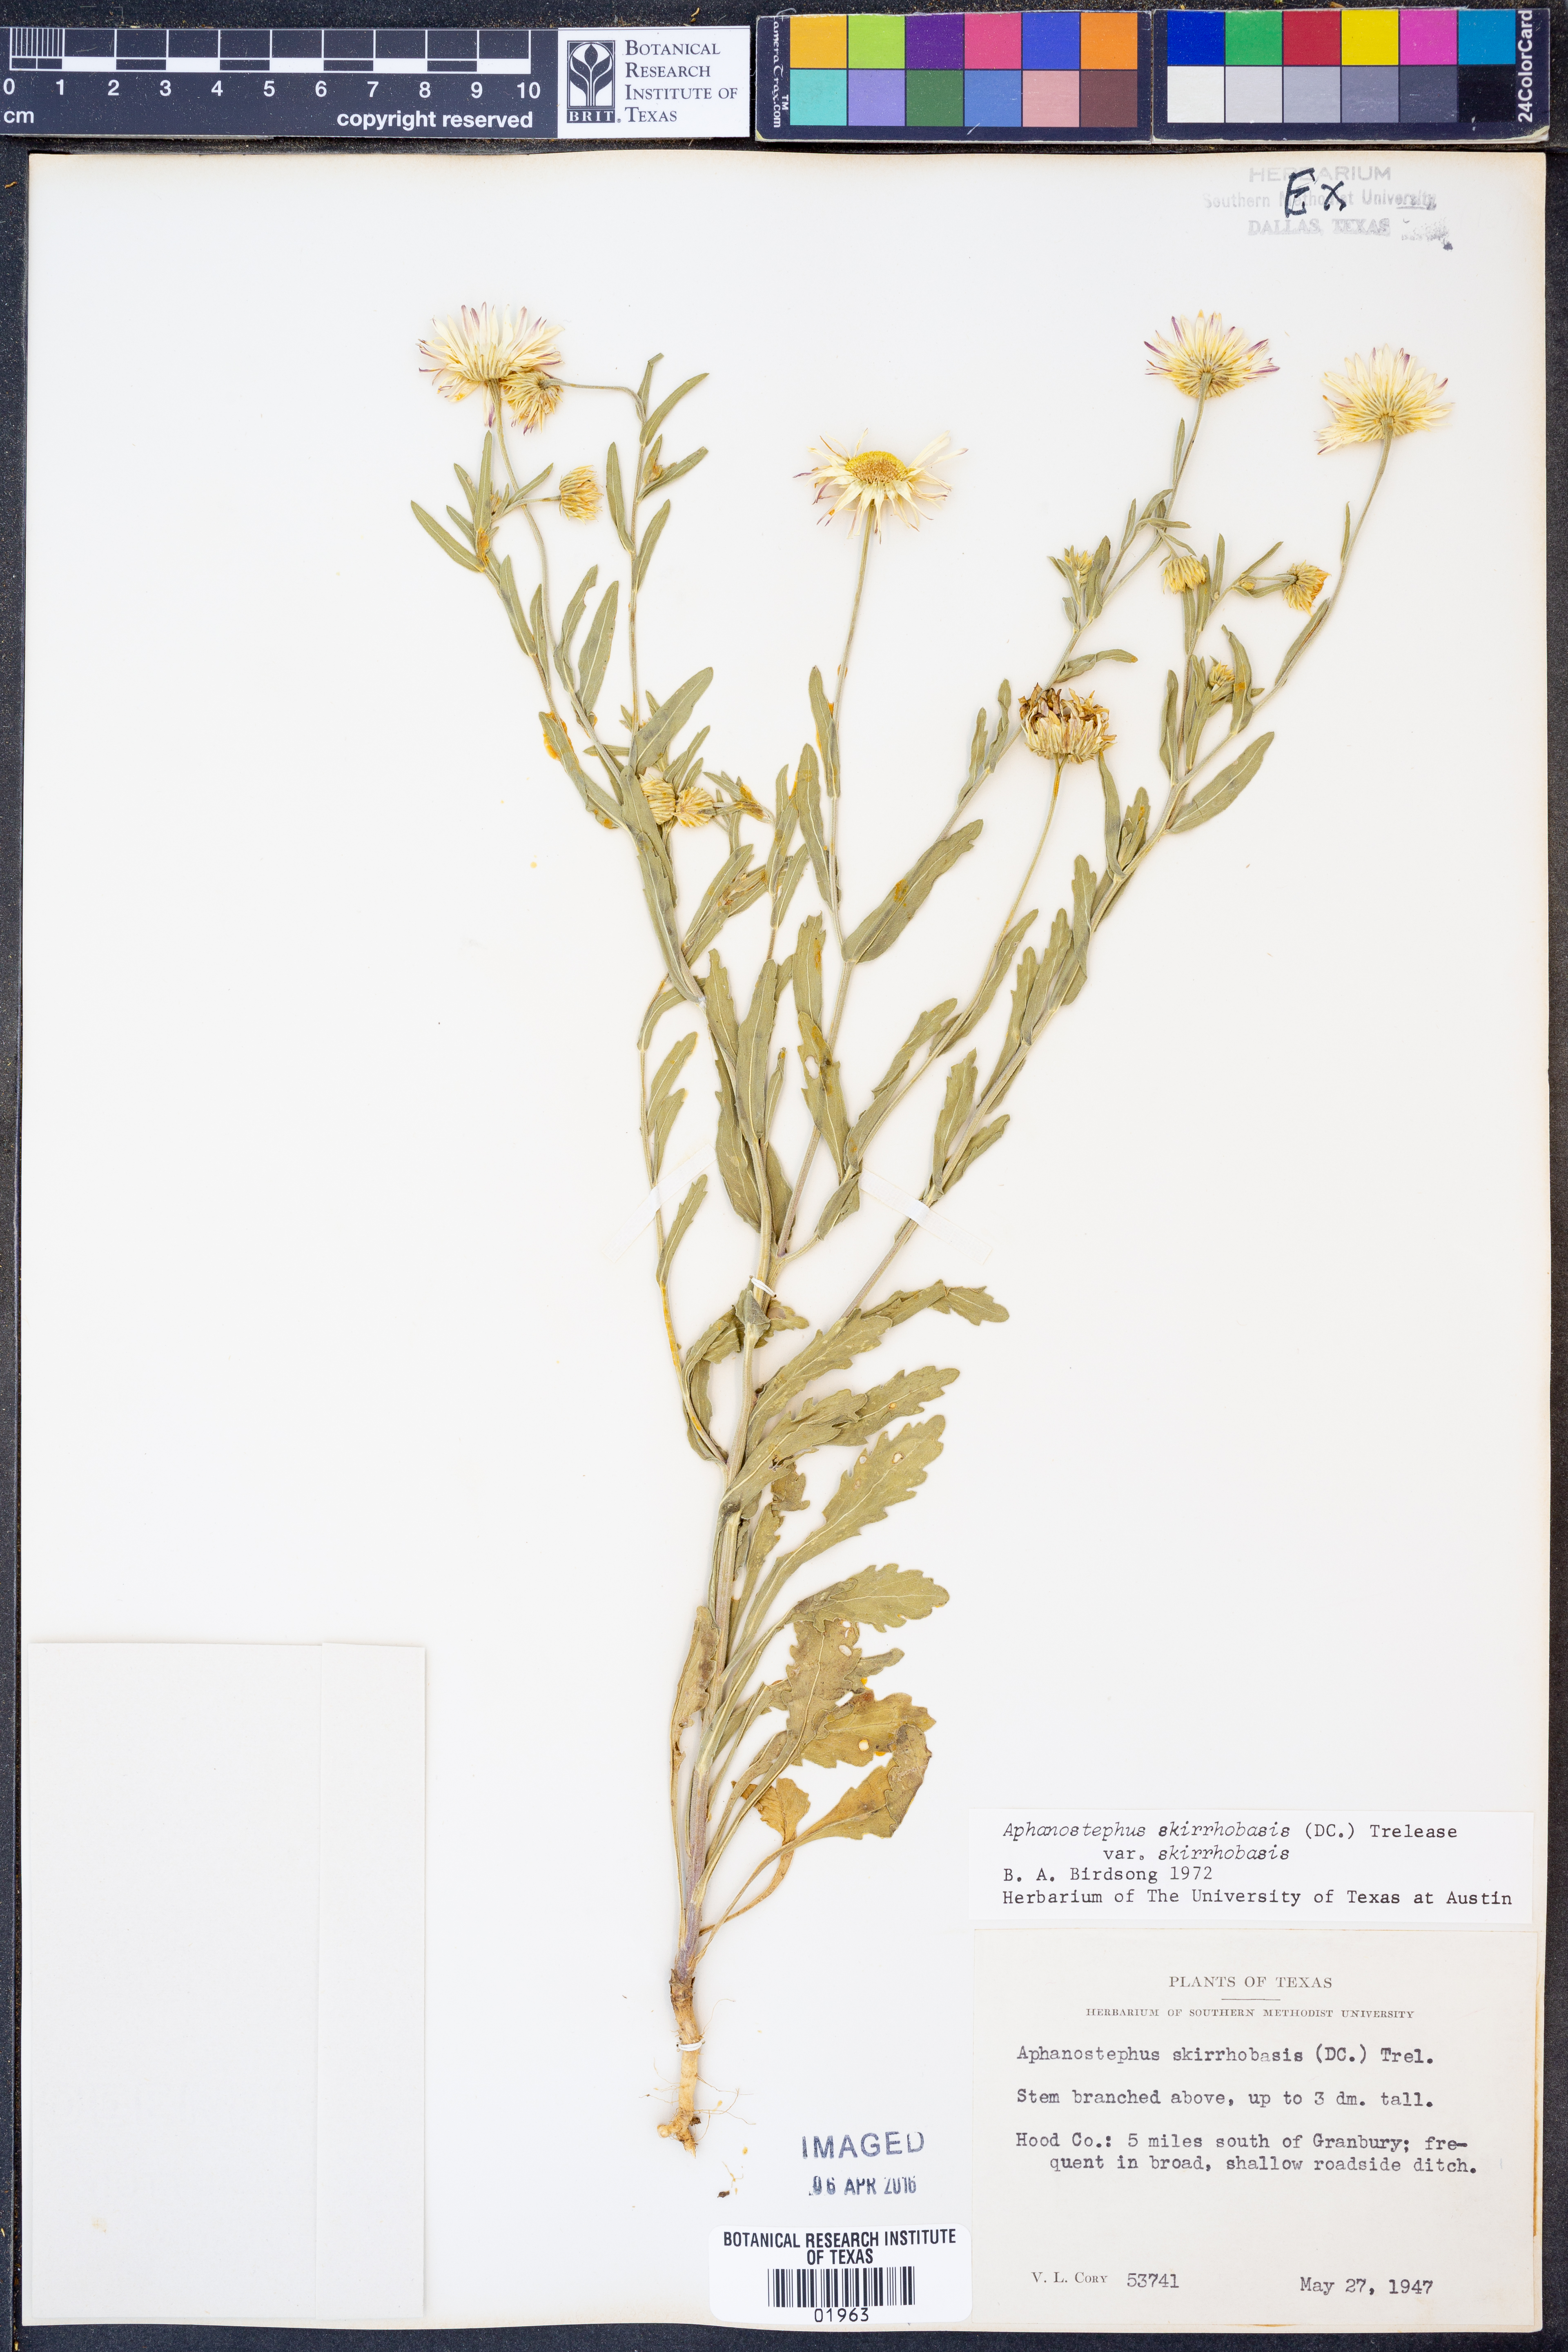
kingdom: Plantae
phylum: Tracheophyta
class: Magnoliopsida
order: Asterales
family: Asteraceae
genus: Aphanostephus
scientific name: Aphanostephus skirrhobasis
